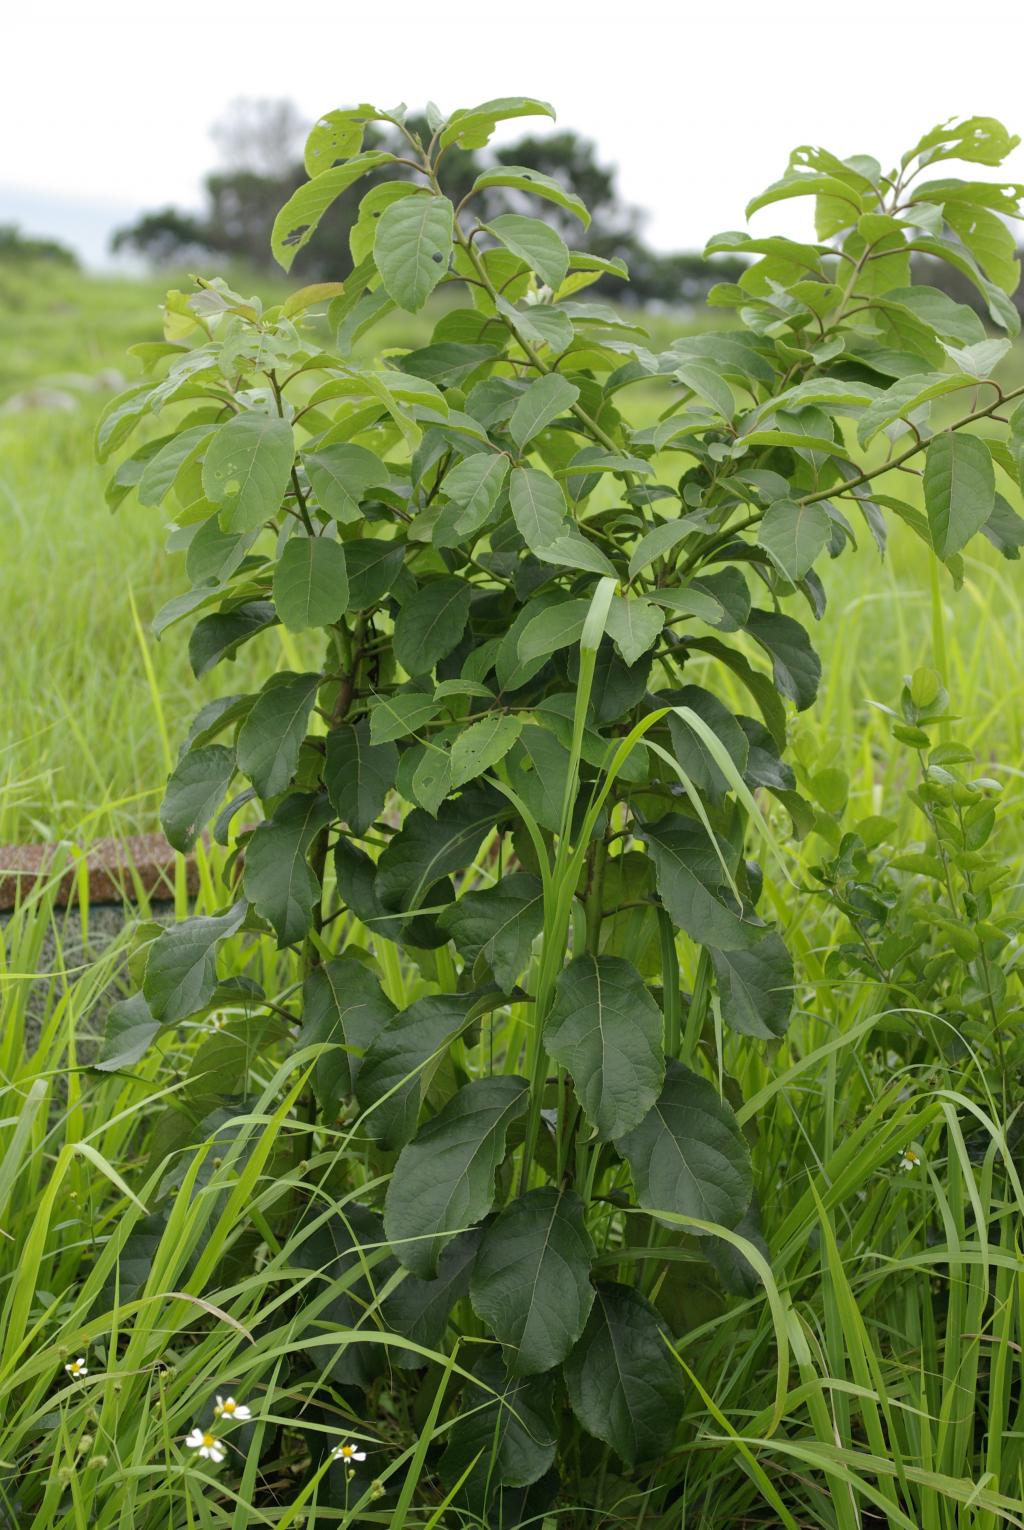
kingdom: Plantae
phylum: Tracheophyta
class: Magnoliopsida
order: Boraginales
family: Ehretiaceae
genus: Ehretia
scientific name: Ehretia acuminata
